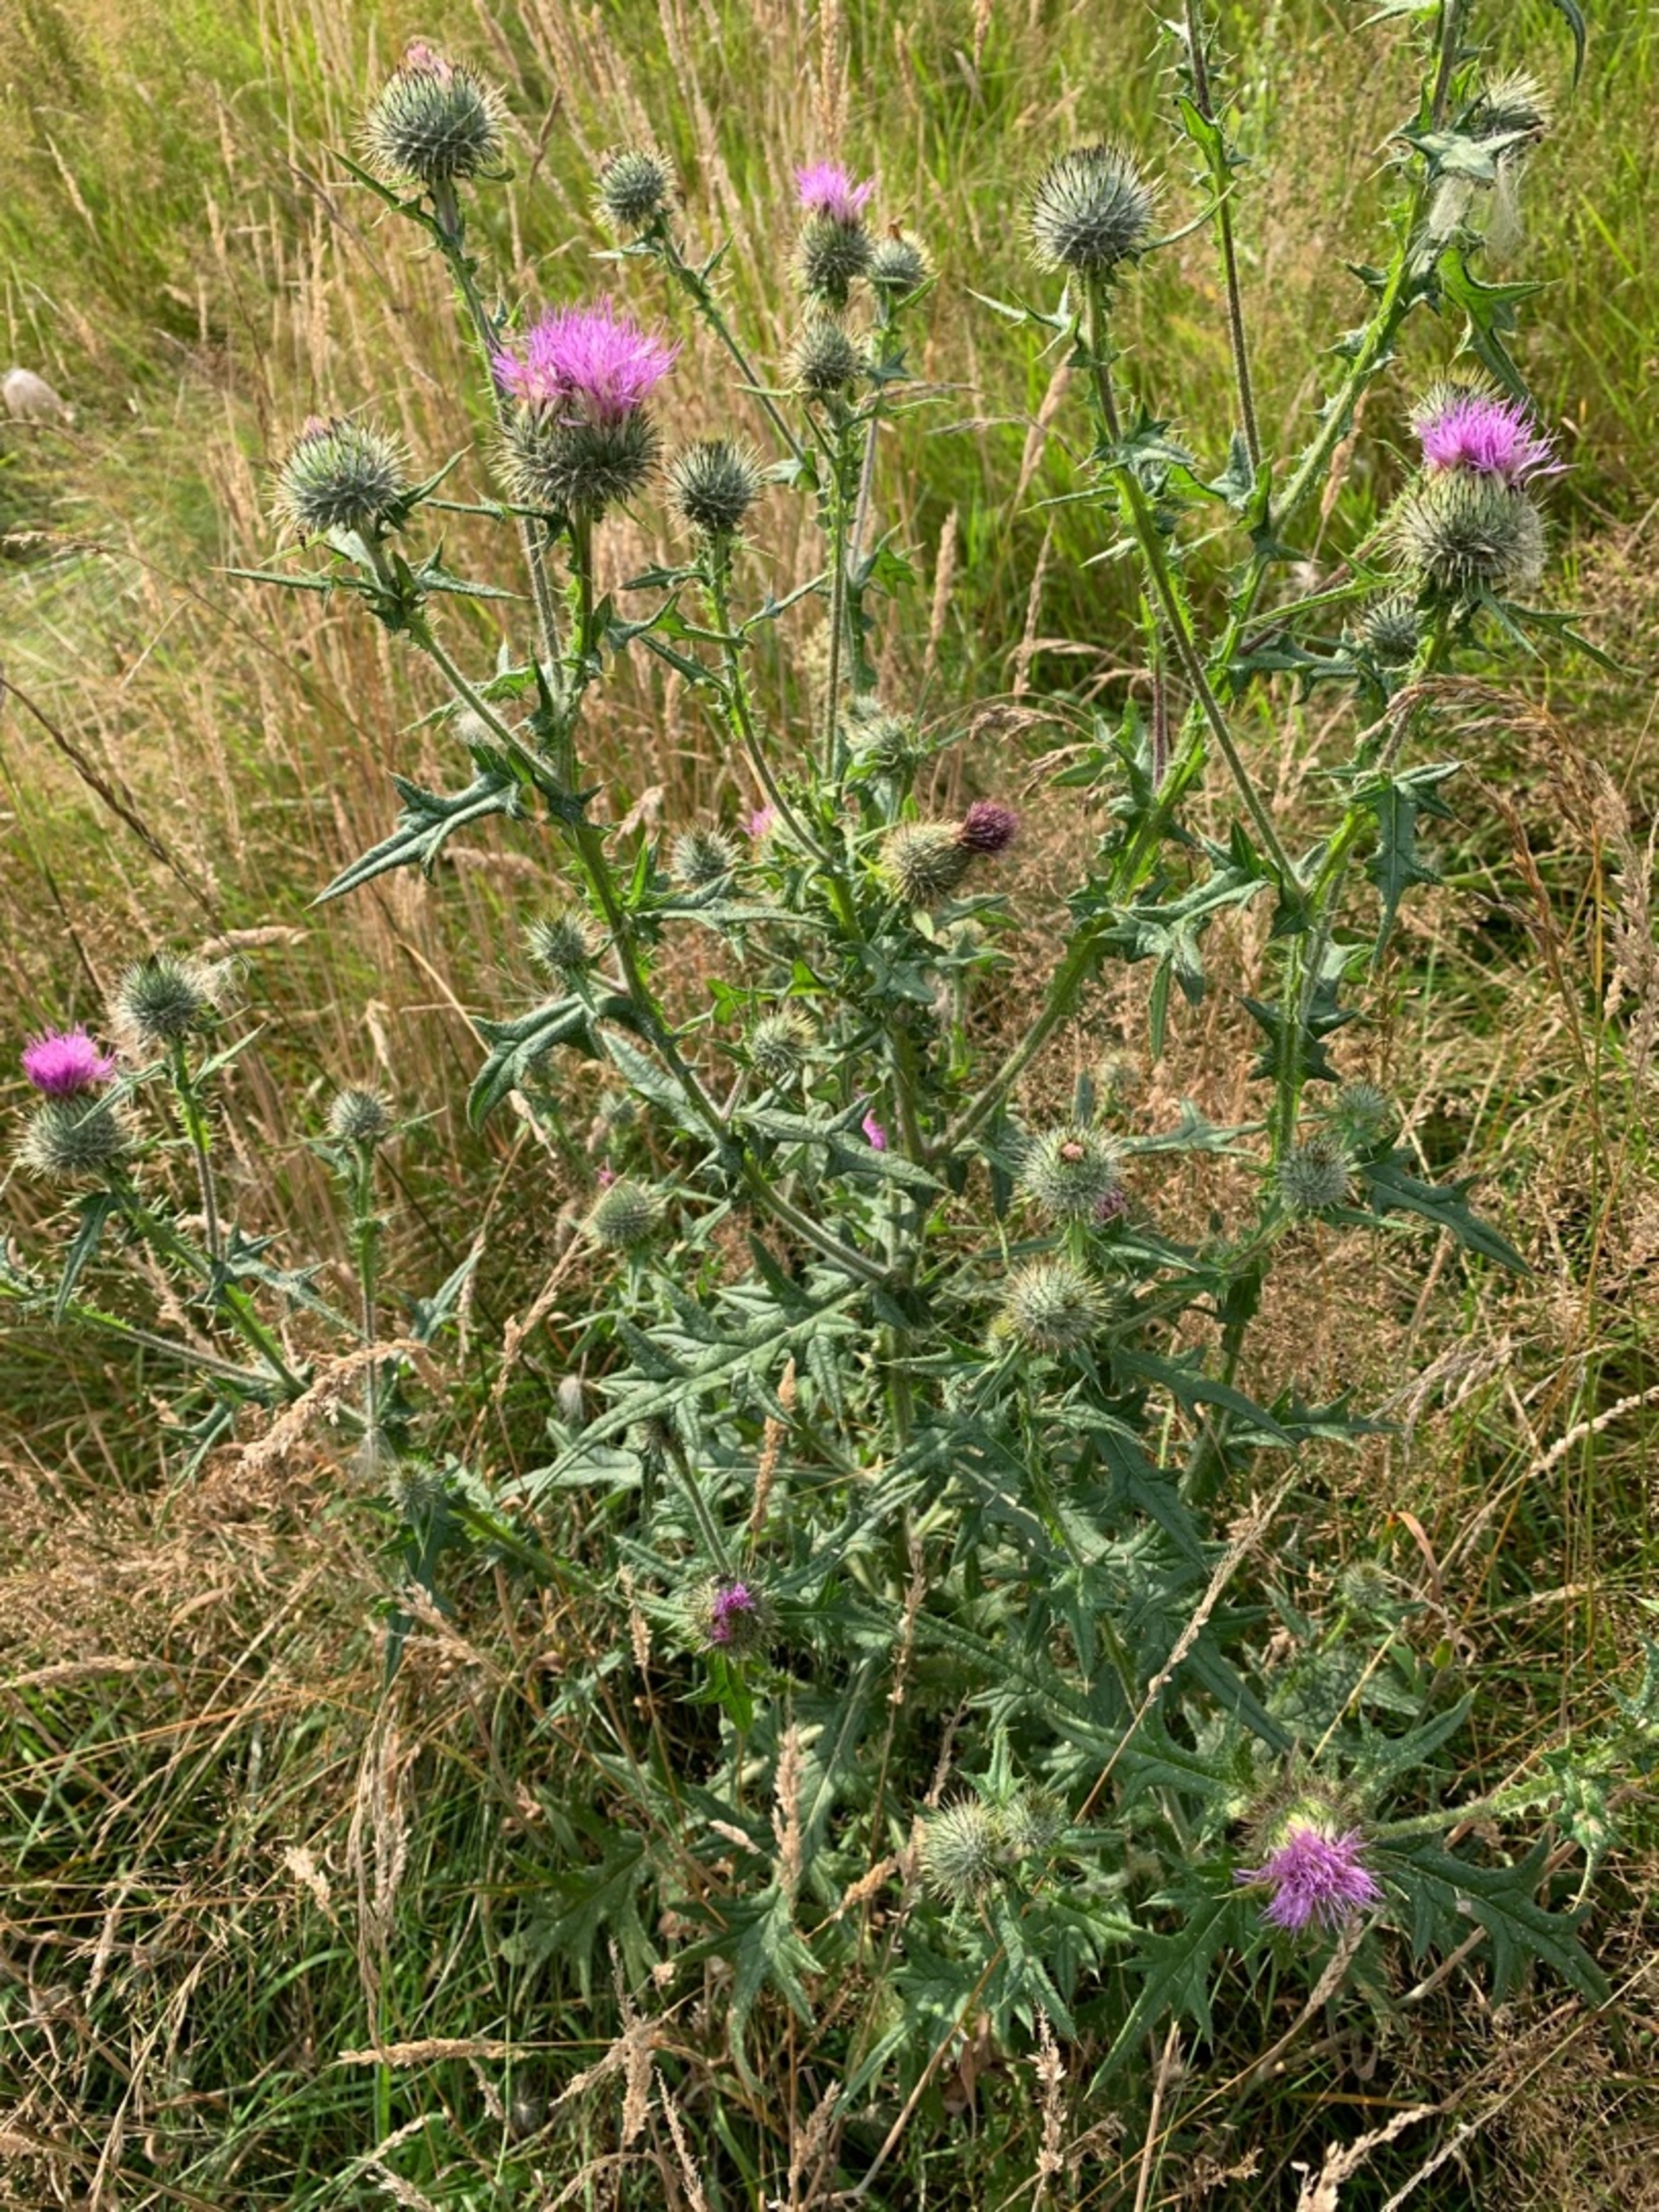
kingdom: Plantae
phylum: Tracheophyta
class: Magnoliopsida
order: Asterales
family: Asteraceae
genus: Cirsium
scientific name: Cirsium vulgare
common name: Horse-tidsel
